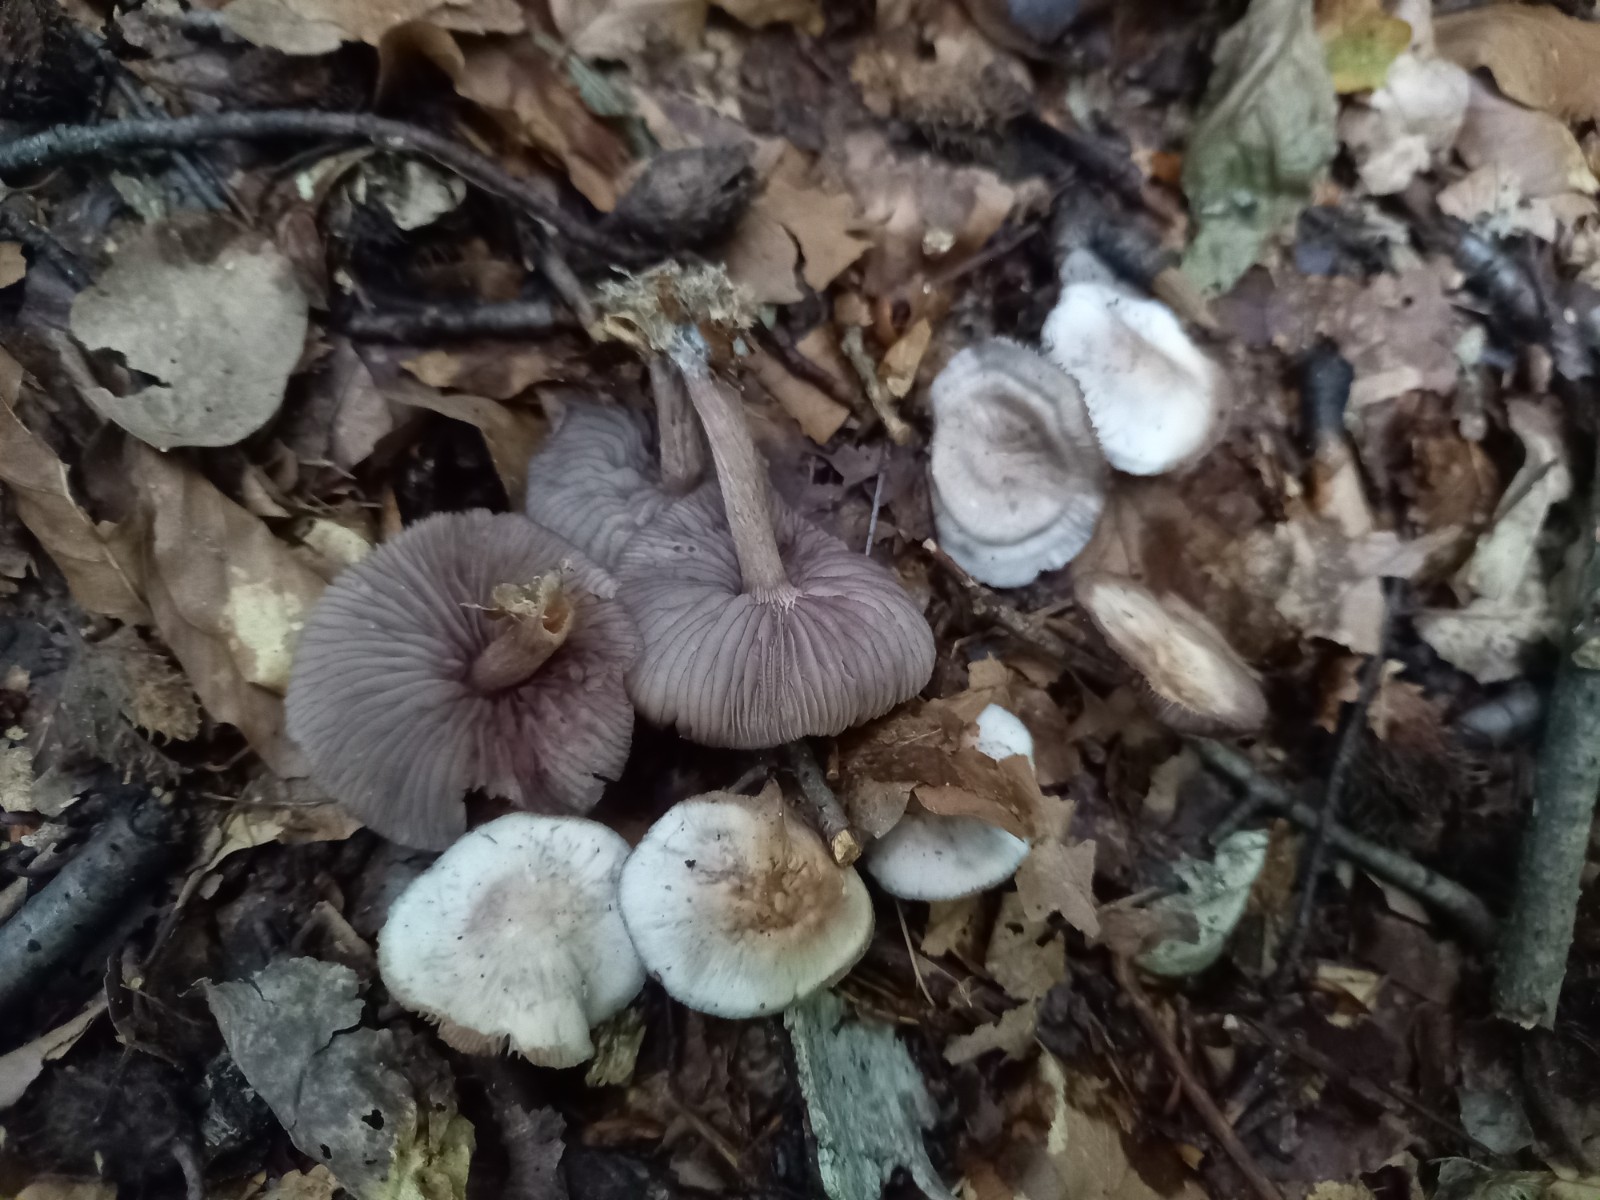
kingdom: Fungi
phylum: Basidiomycota
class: Agaricomycetes
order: Agaricales
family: Mycenaceae
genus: Mycena
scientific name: Mycena pelianthina
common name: mørkbladet huesvamp
